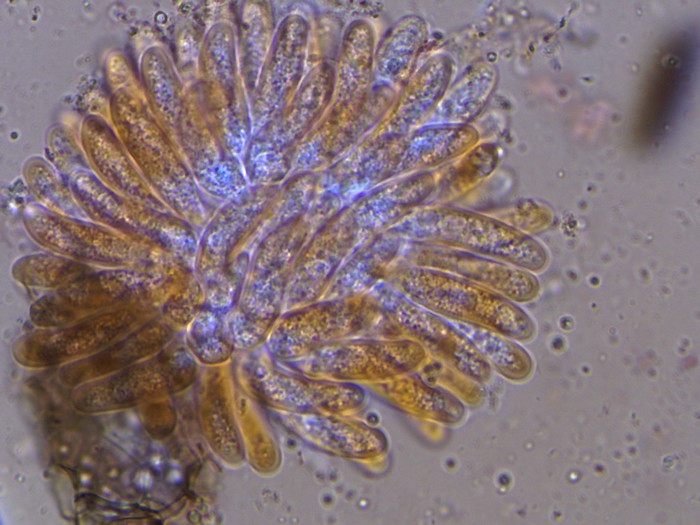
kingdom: Fungi
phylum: Ascomycota
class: Dothideomycetes
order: Mycosphaerellales
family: Mycosphaerellaceae
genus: Mycosphaerella
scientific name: Mycosphaerella punctiformis
